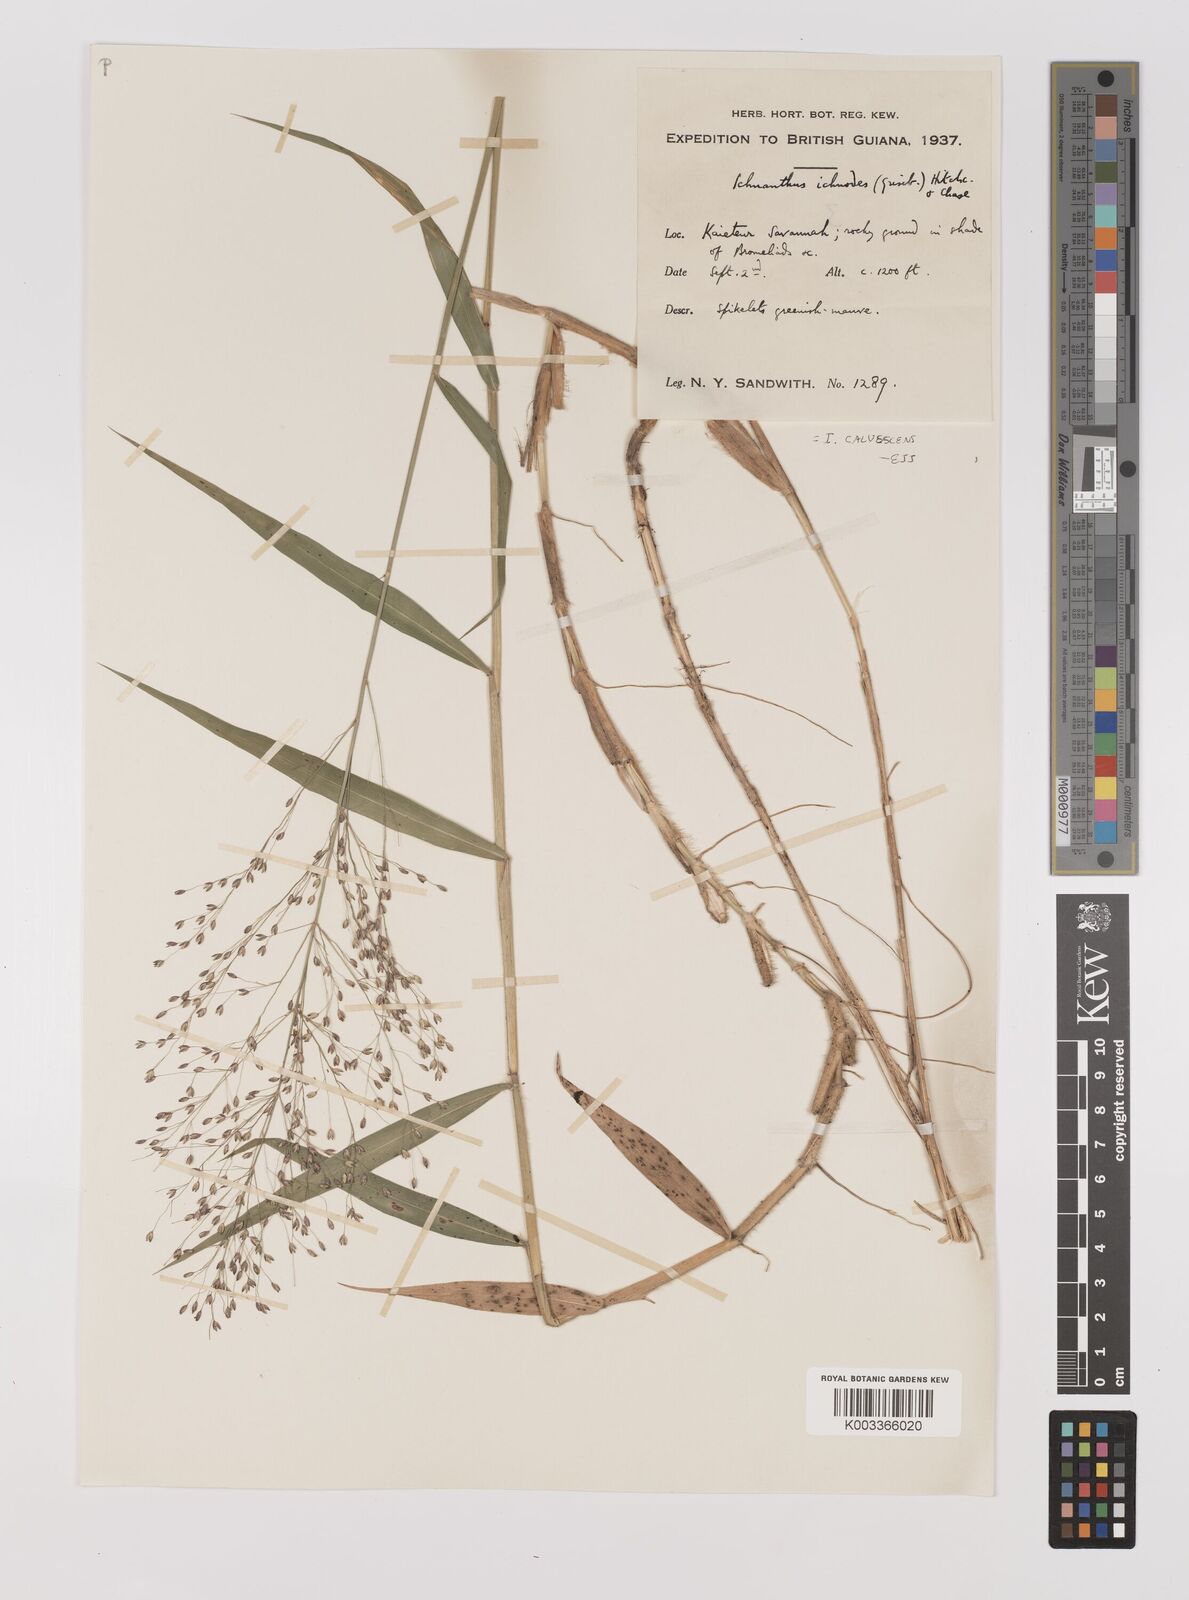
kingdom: Plantae
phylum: Tracheophyta
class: Liliopsida
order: Poales
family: Poaceae
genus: Ichnanthus
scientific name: Ichnanthus calvescens
